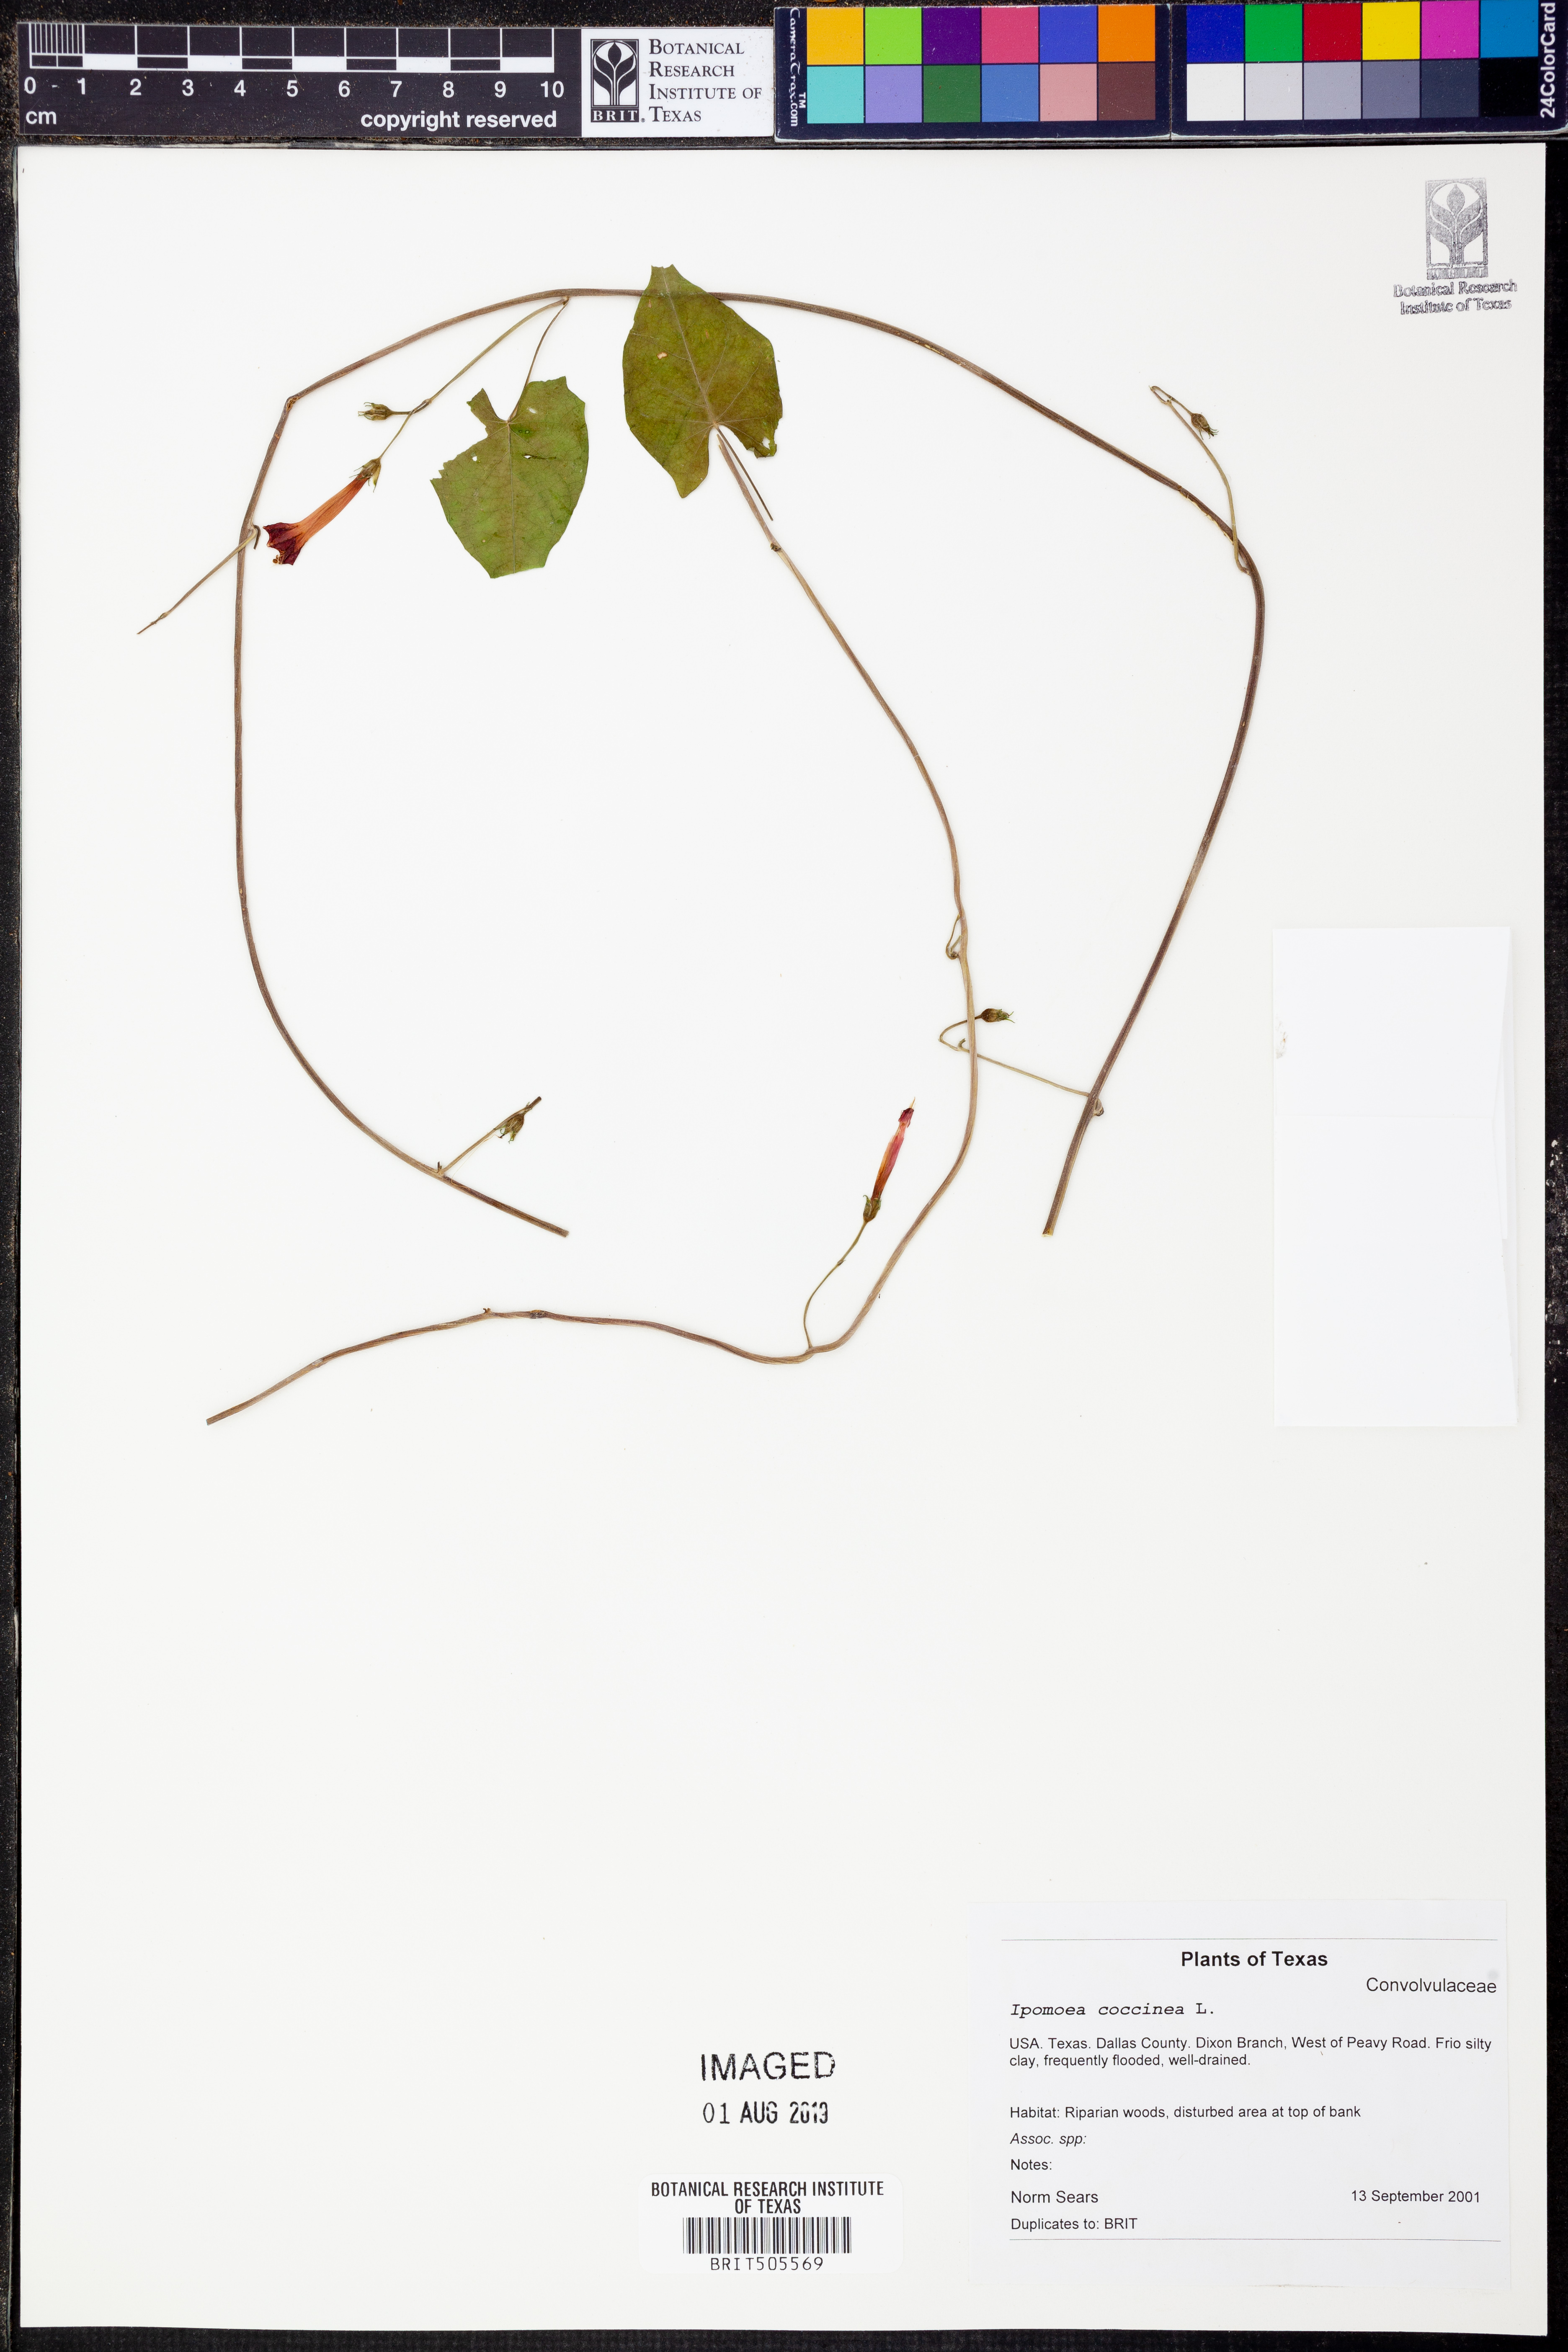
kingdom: Plantae
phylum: Tracheophyta
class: Magnoliopsida
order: Solanales
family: Convolvulaceae
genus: Ipomoea
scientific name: Ipomoea coccinea
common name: Red morning-glory
